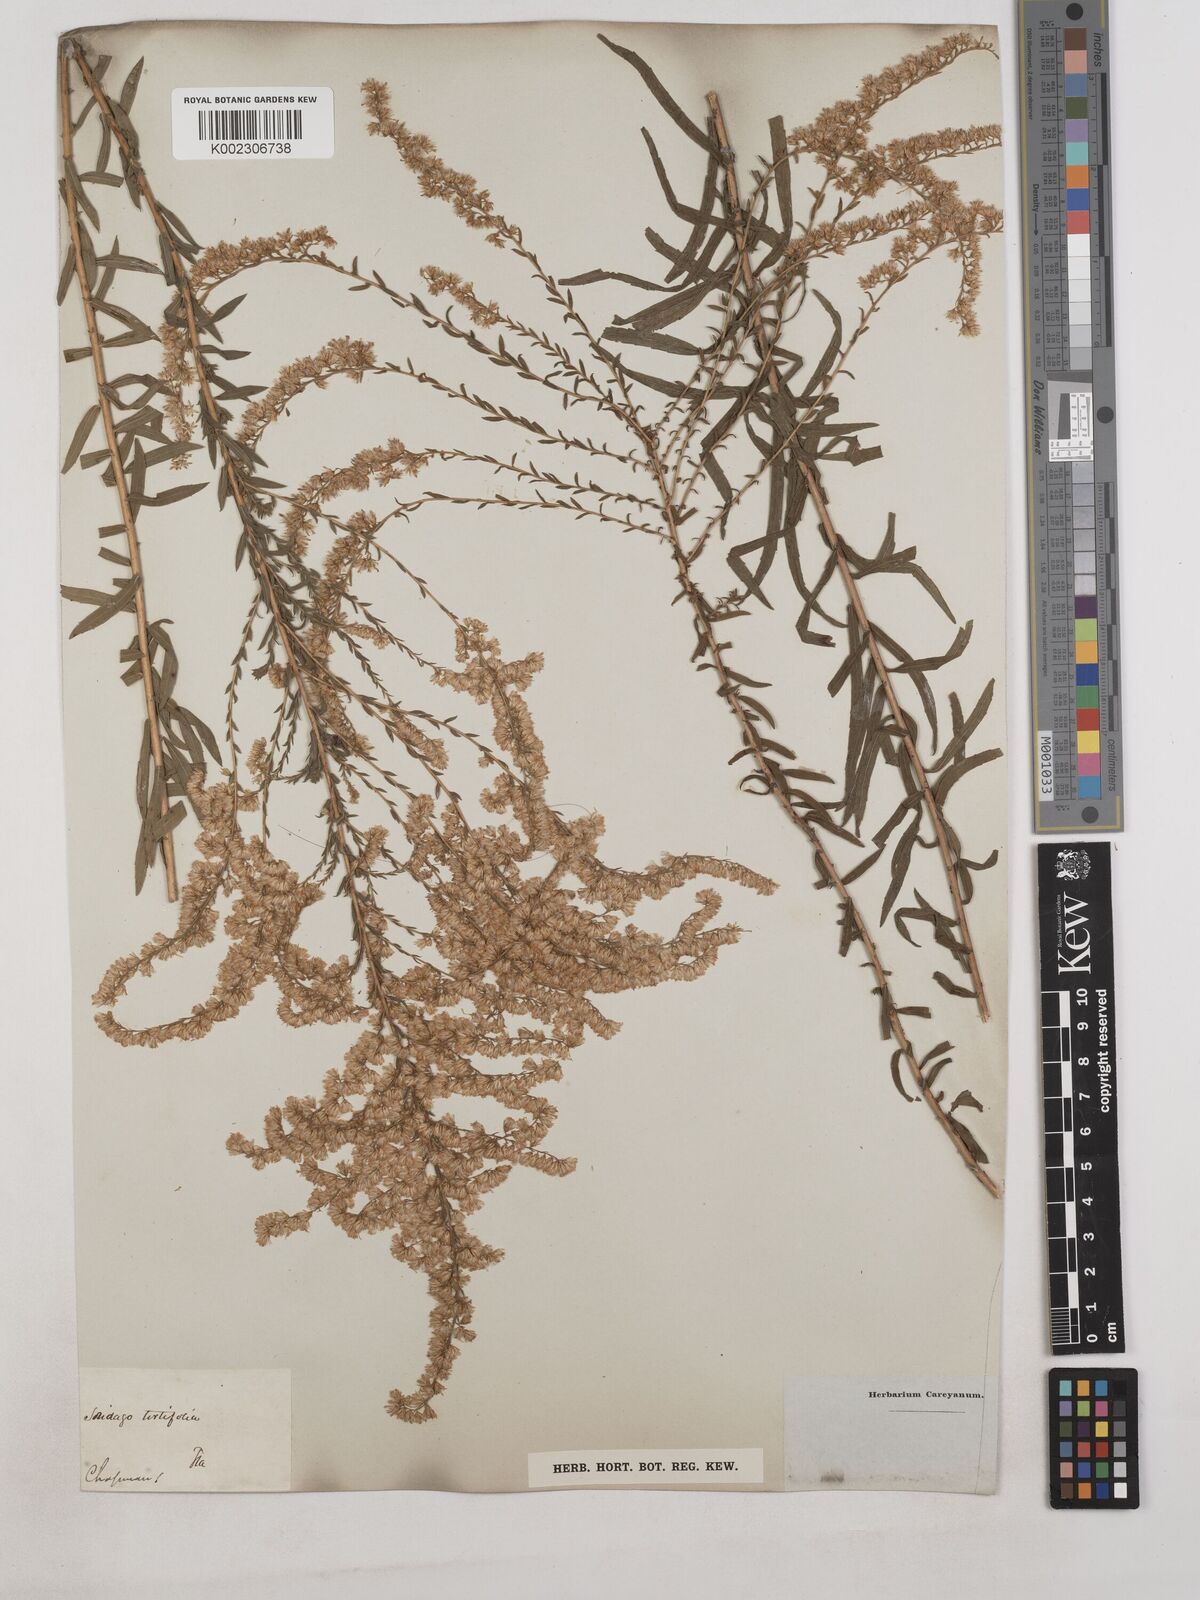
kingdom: Plantae
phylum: Tracheophyta
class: Magnoliopsida
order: Asterales
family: Asteraceae
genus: Solidago
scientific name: Solidago tortifolia
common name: Twisted-leaf goldenrod
